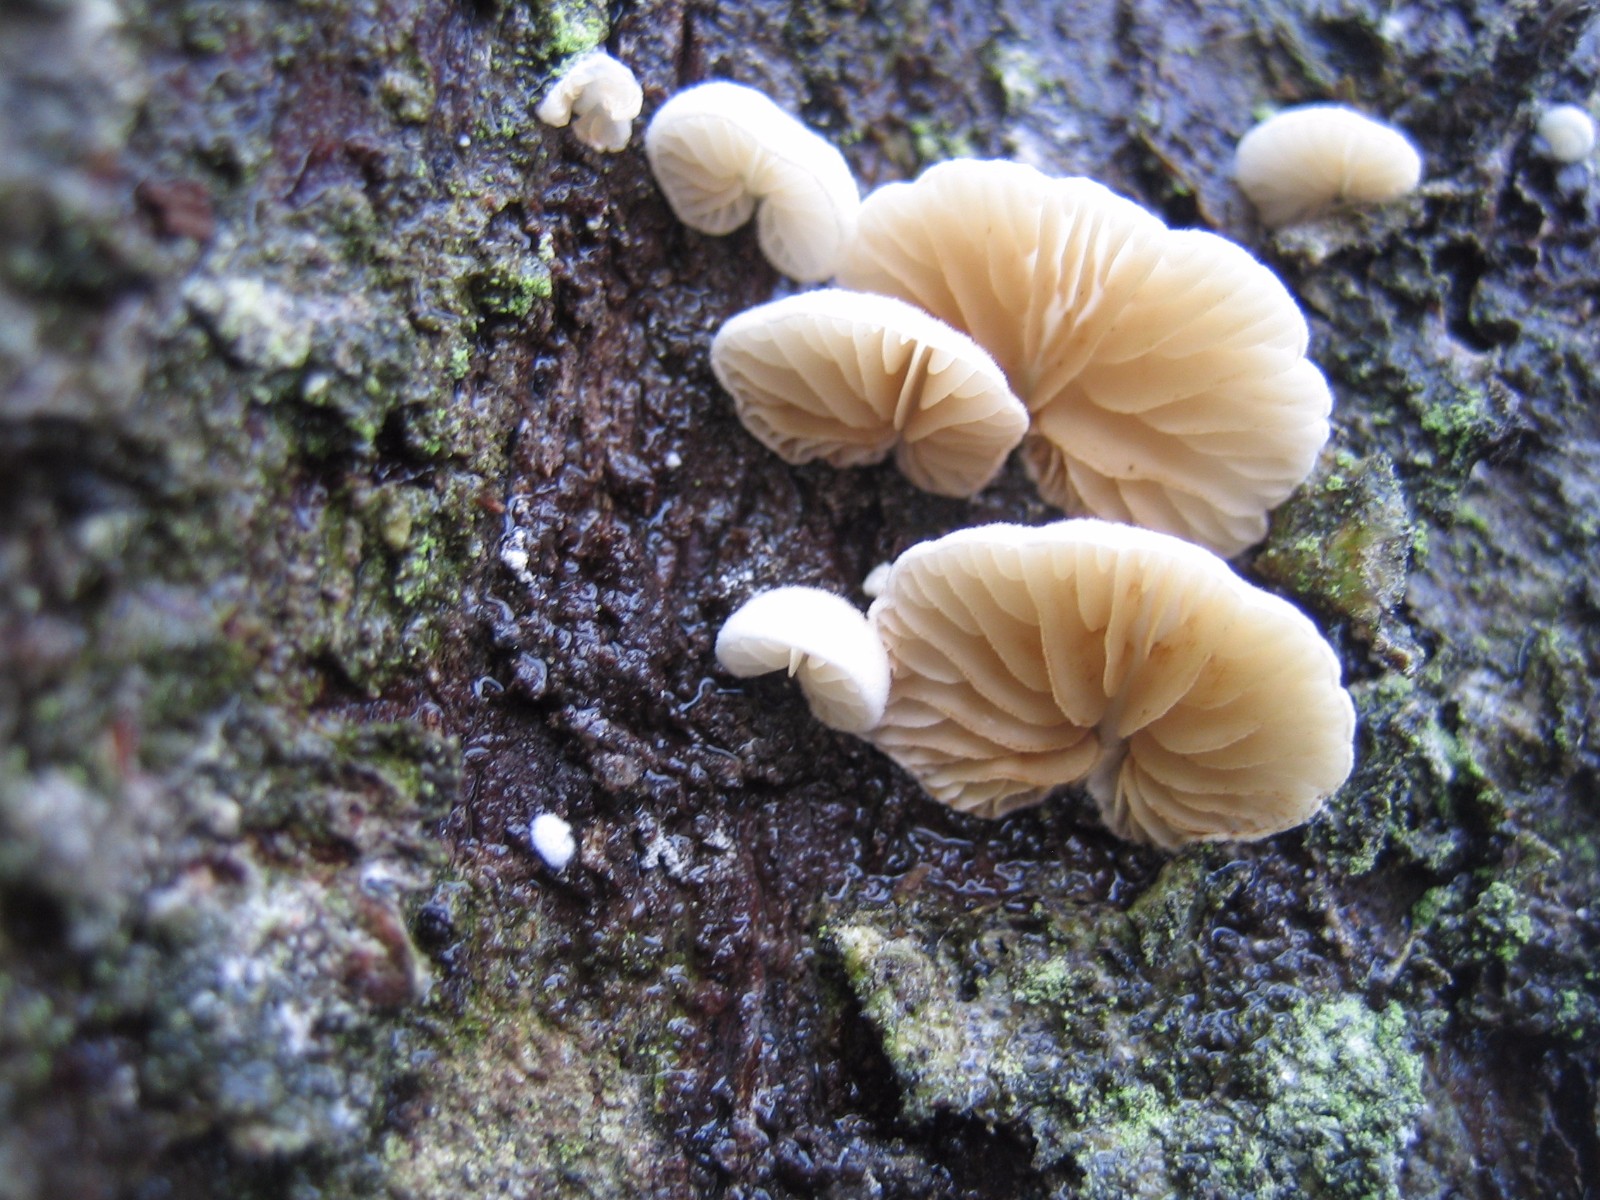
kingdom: Fungi
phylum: Basidiomycota
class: Agaricomycetes
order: Agaricales
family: Crepidotaceae
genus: Crepidotus
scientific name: Crepidotus
